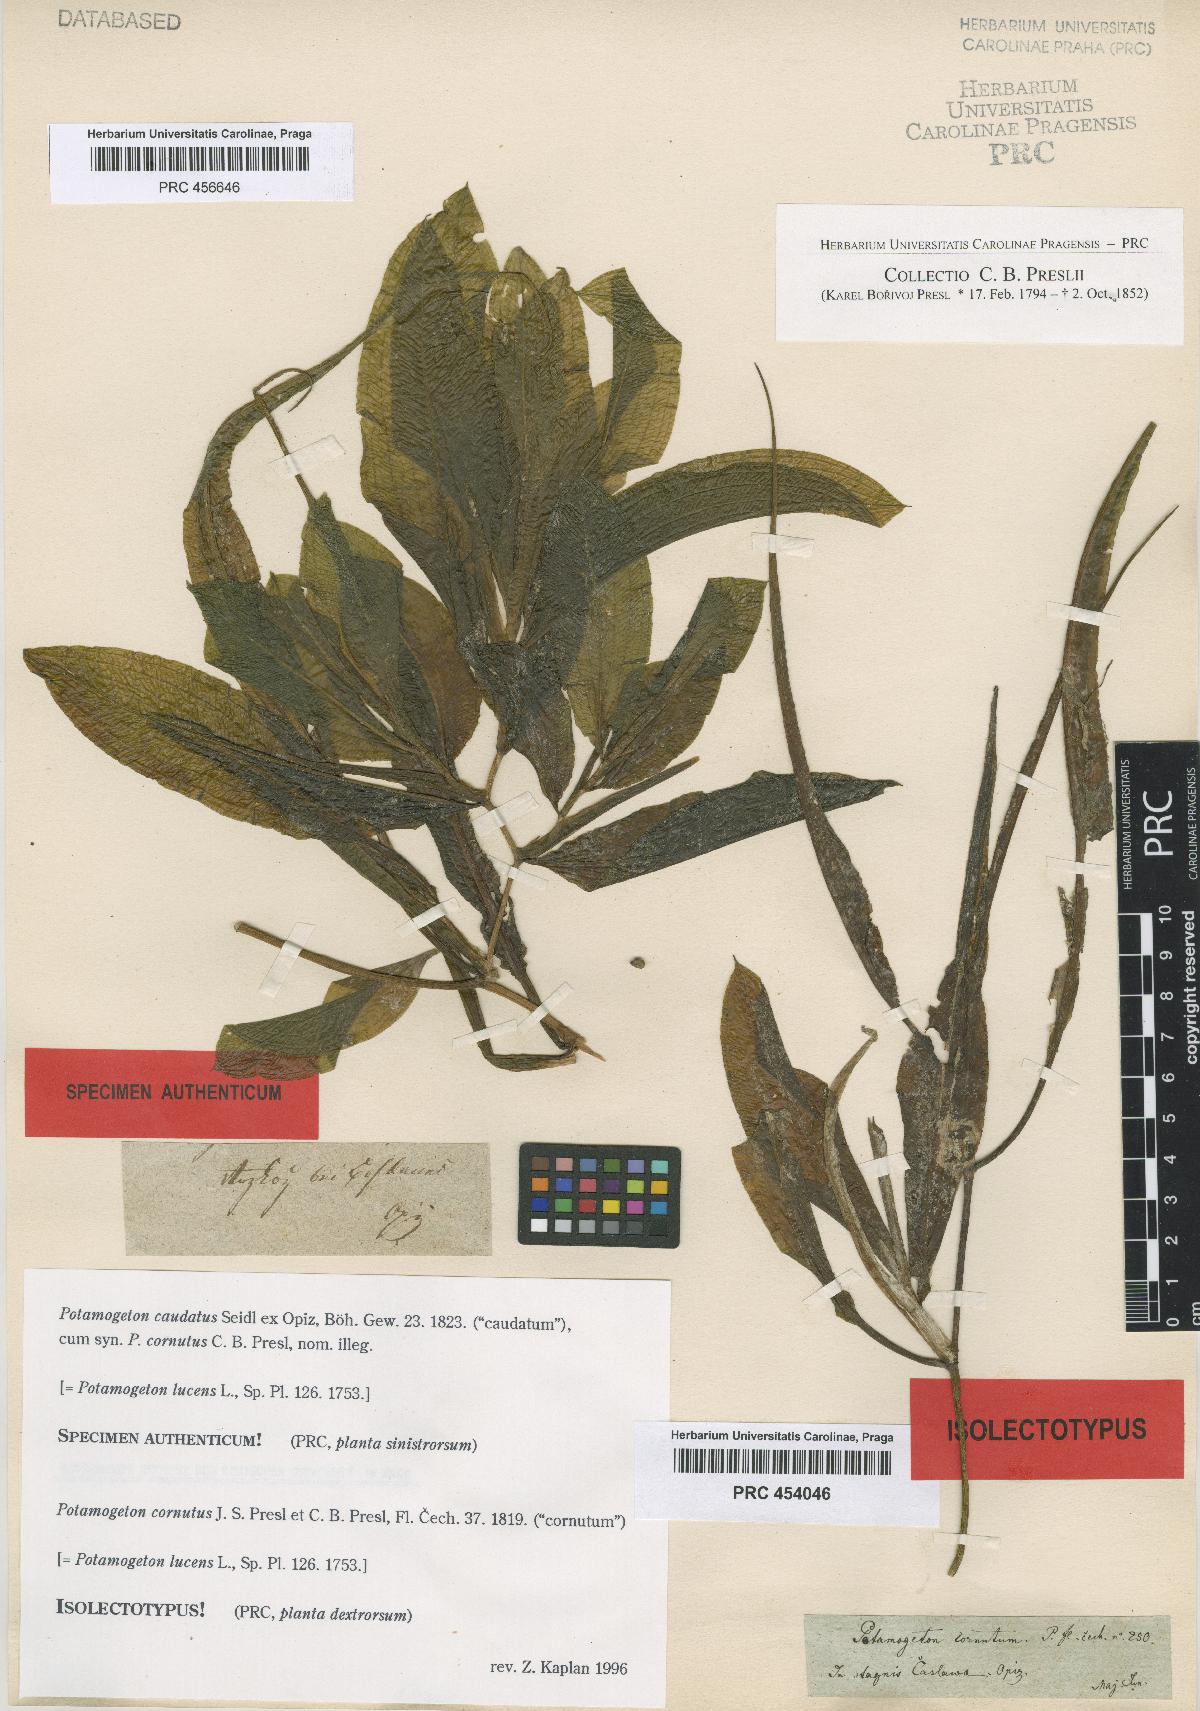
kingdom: Plantae
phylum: Tracheophyta
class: Liliopsida
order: Alismatales
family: Potamogetonaceae
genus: Potamogeton
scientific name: Potamogeton lucens
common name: Shining pondweed
